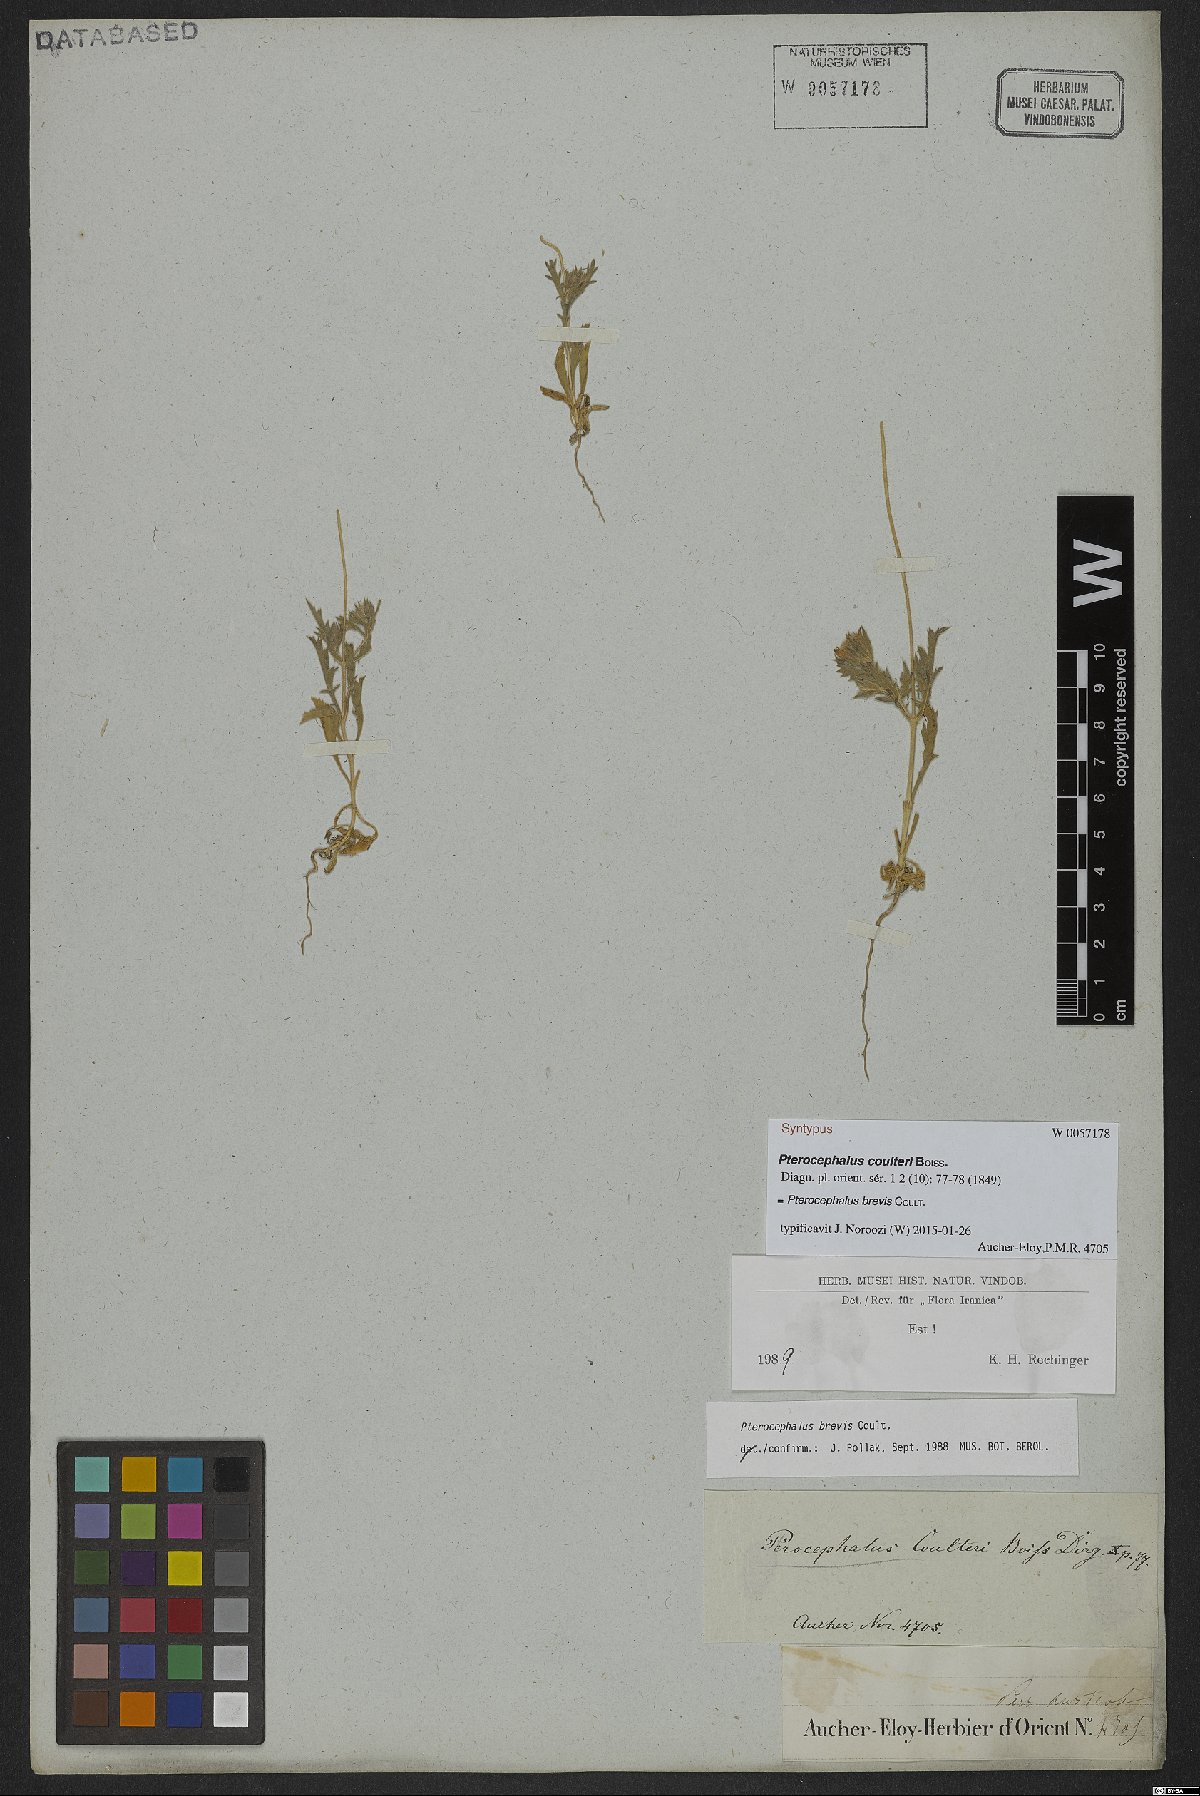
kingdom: Plantae
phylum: Tracheophyta
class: Magnoliopsida
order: Dipsacales
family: Caprifoliaceae
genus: Pterocephalus
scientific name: Pterocephalus brevis
